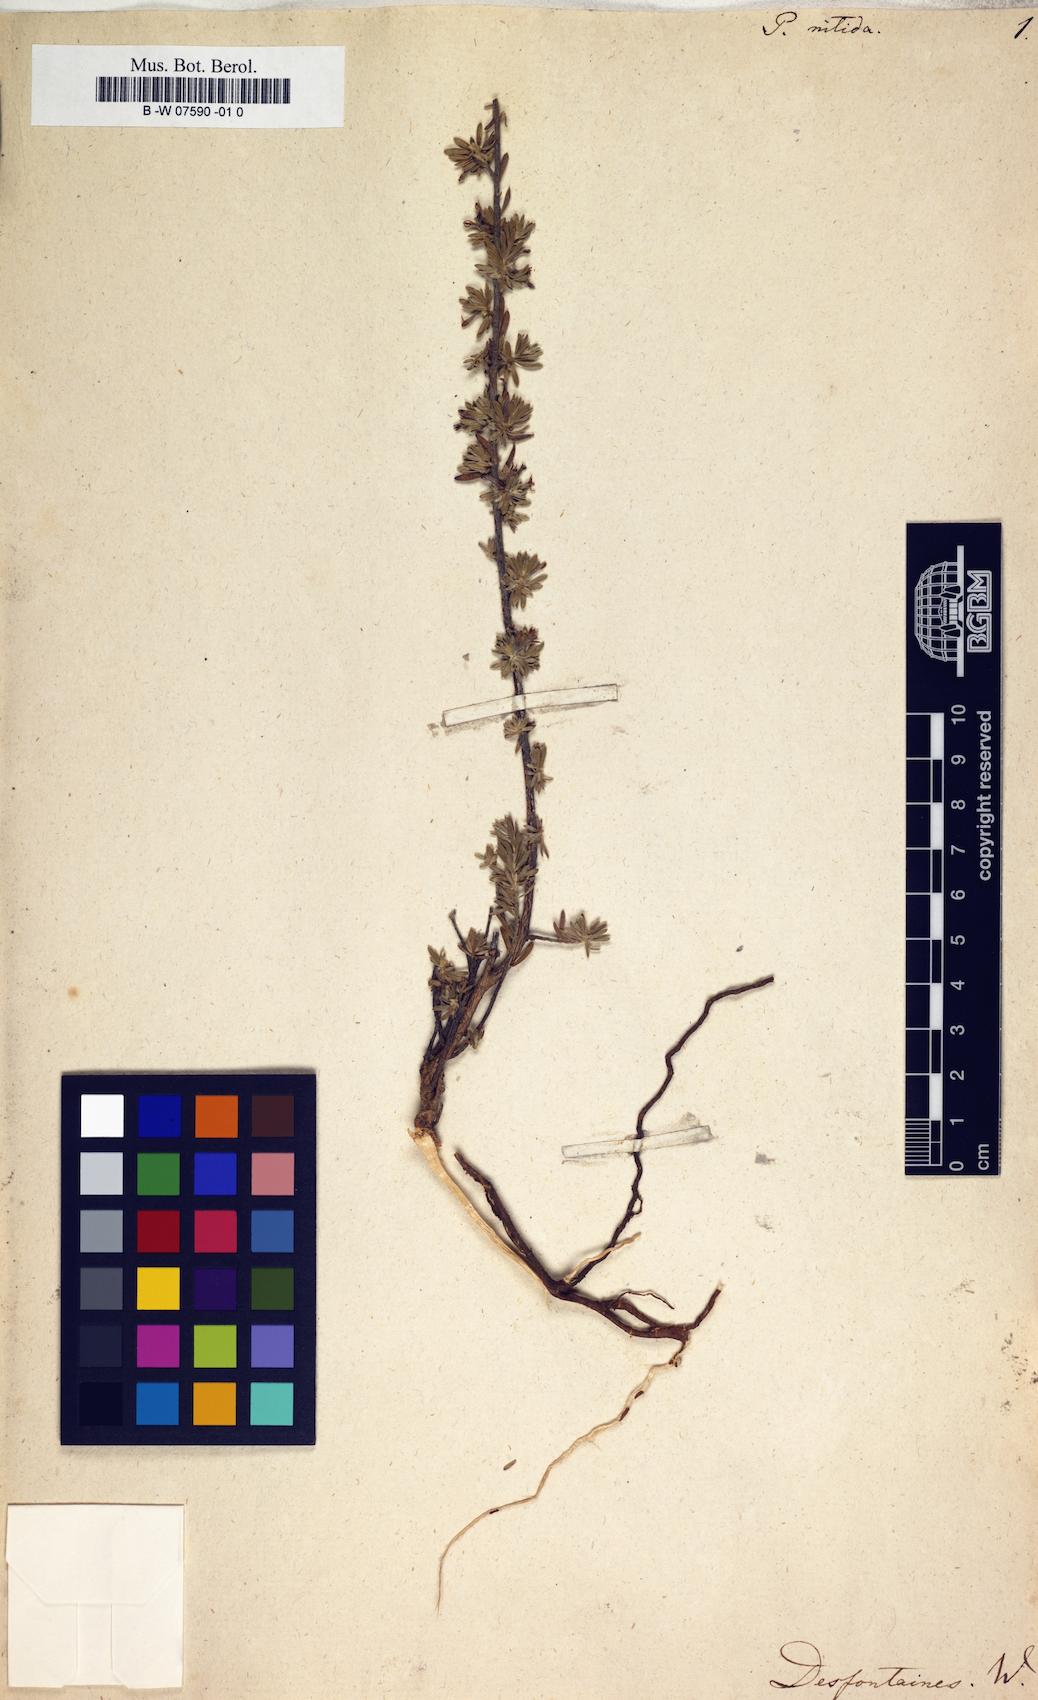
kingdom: Plantae
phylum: Tracheophyta
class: Magnoliopsida
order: Malvales
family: Thymelaeaceae
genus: Thymelaea
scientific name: Thymelaea argentata
